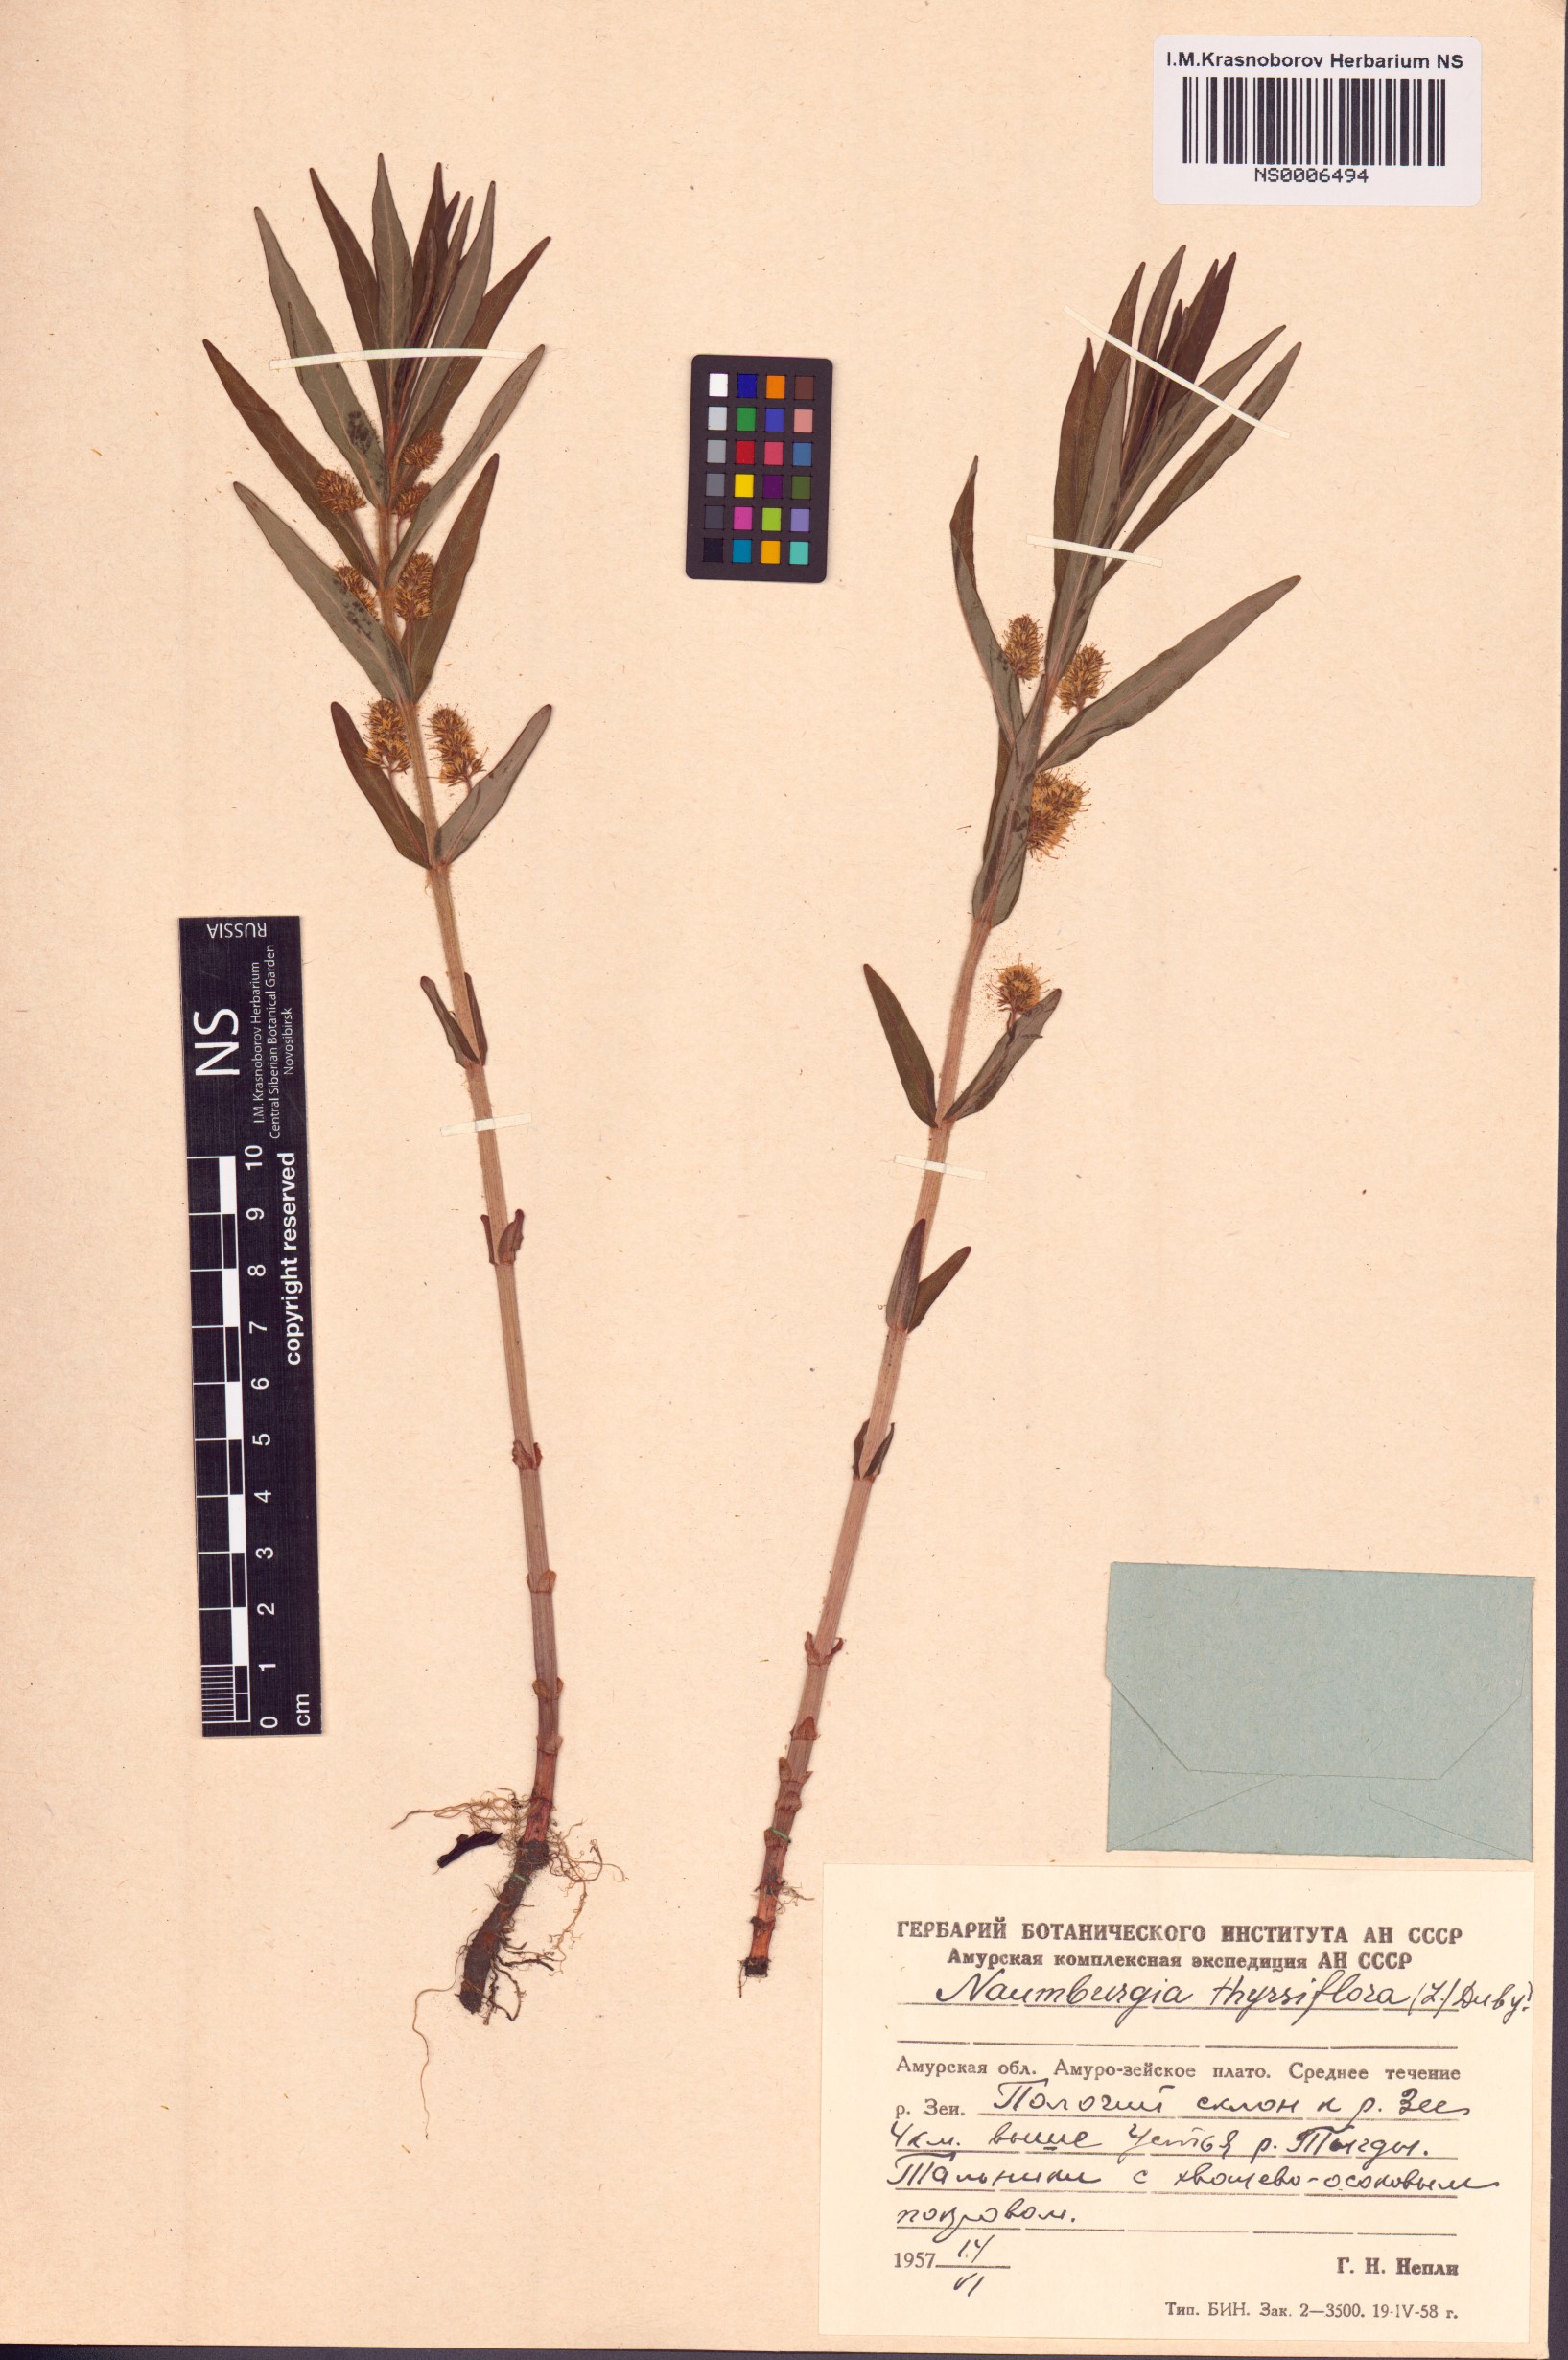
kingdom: Plantae
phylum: Tracheophyta
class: Magnoliopsida
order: Ericales
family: Primulaceae
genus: Lysimachia
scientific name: Lysimachia thyrsiflora
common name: Tufted loosestrife
